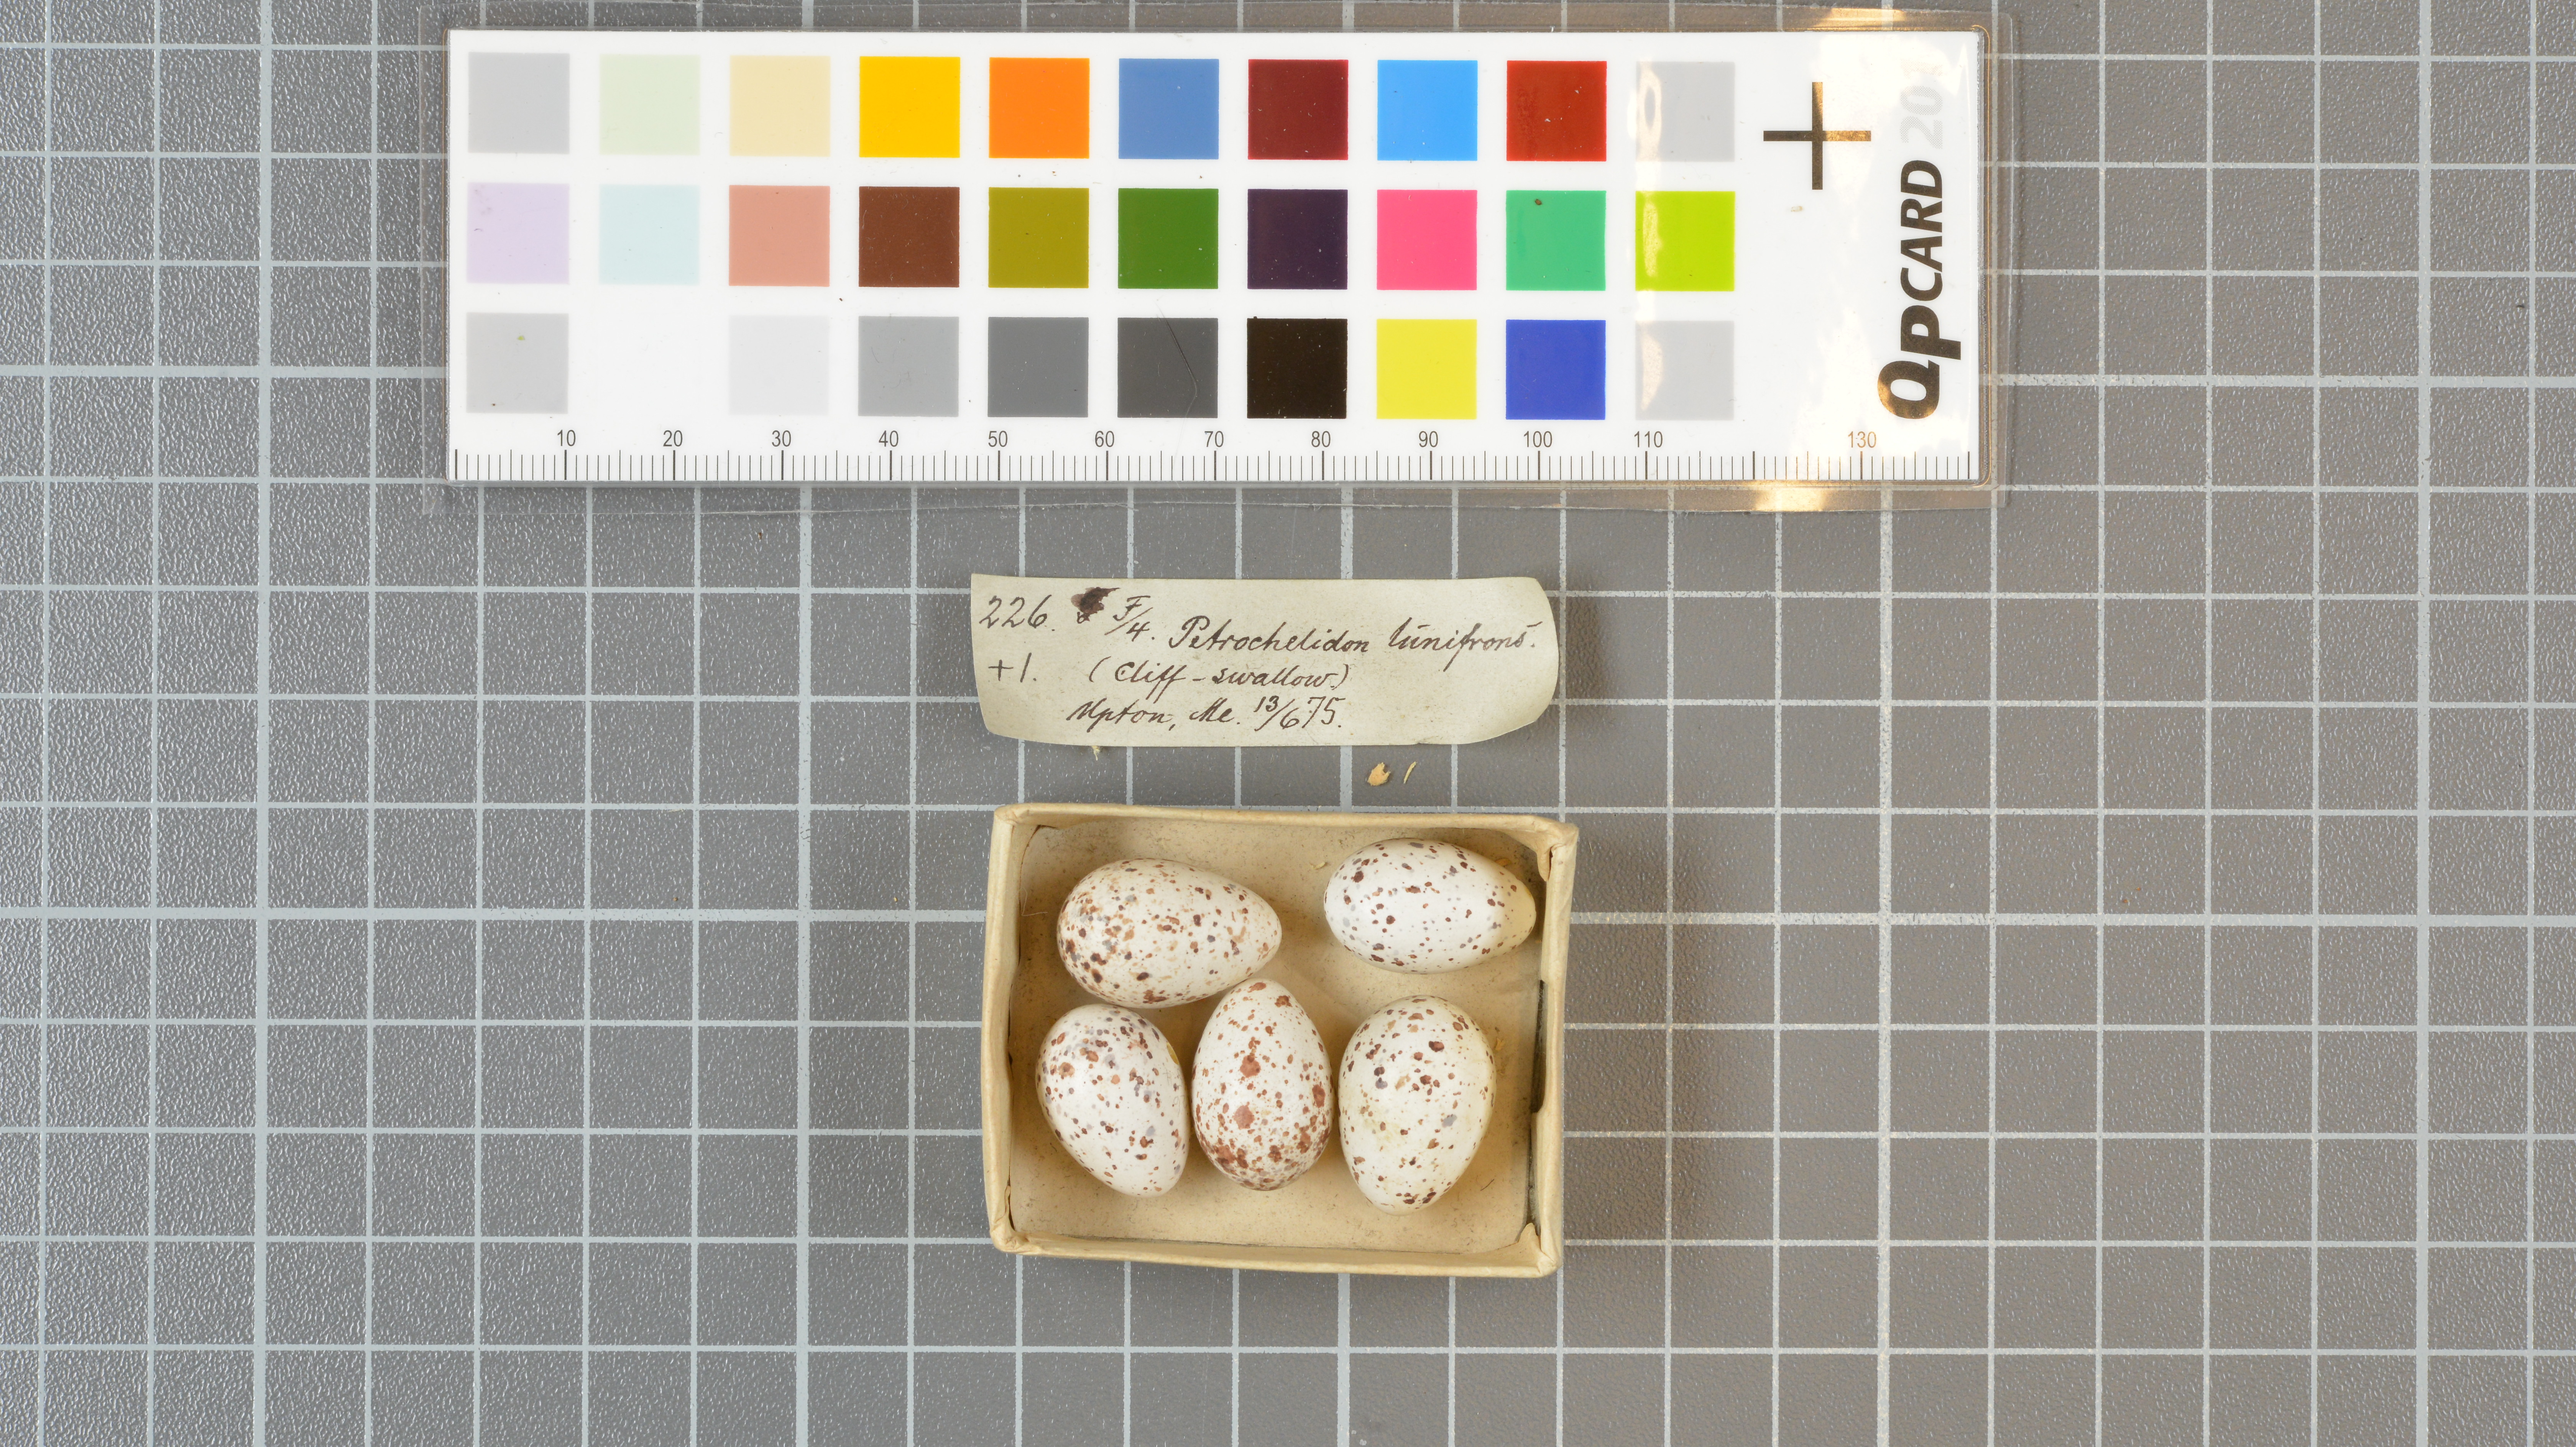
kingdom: Animalia
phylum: Chordata
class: Aves
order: Passeriformes
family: Hirundinidae
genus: Petrochelidon
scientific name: Petrochelidon pyrrhonota
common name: American cliff swallow
